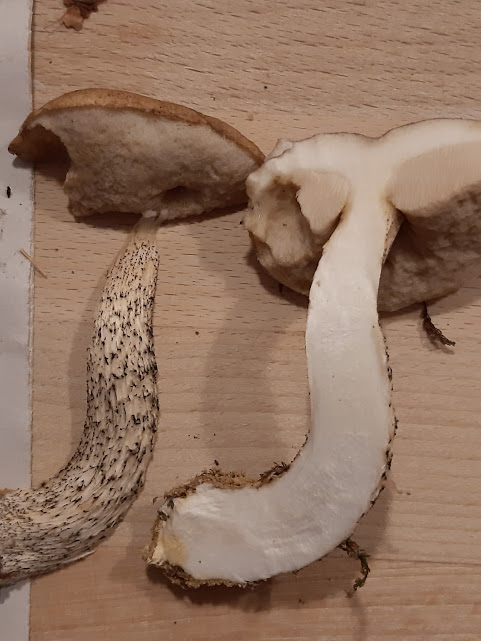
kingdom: Fungi
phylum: Basidiomycota
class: Agaricomycetes
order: Boletales
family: Boletaceae
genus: Leccinum
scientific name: Leccinum scabrum
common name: brun skælrørhat
